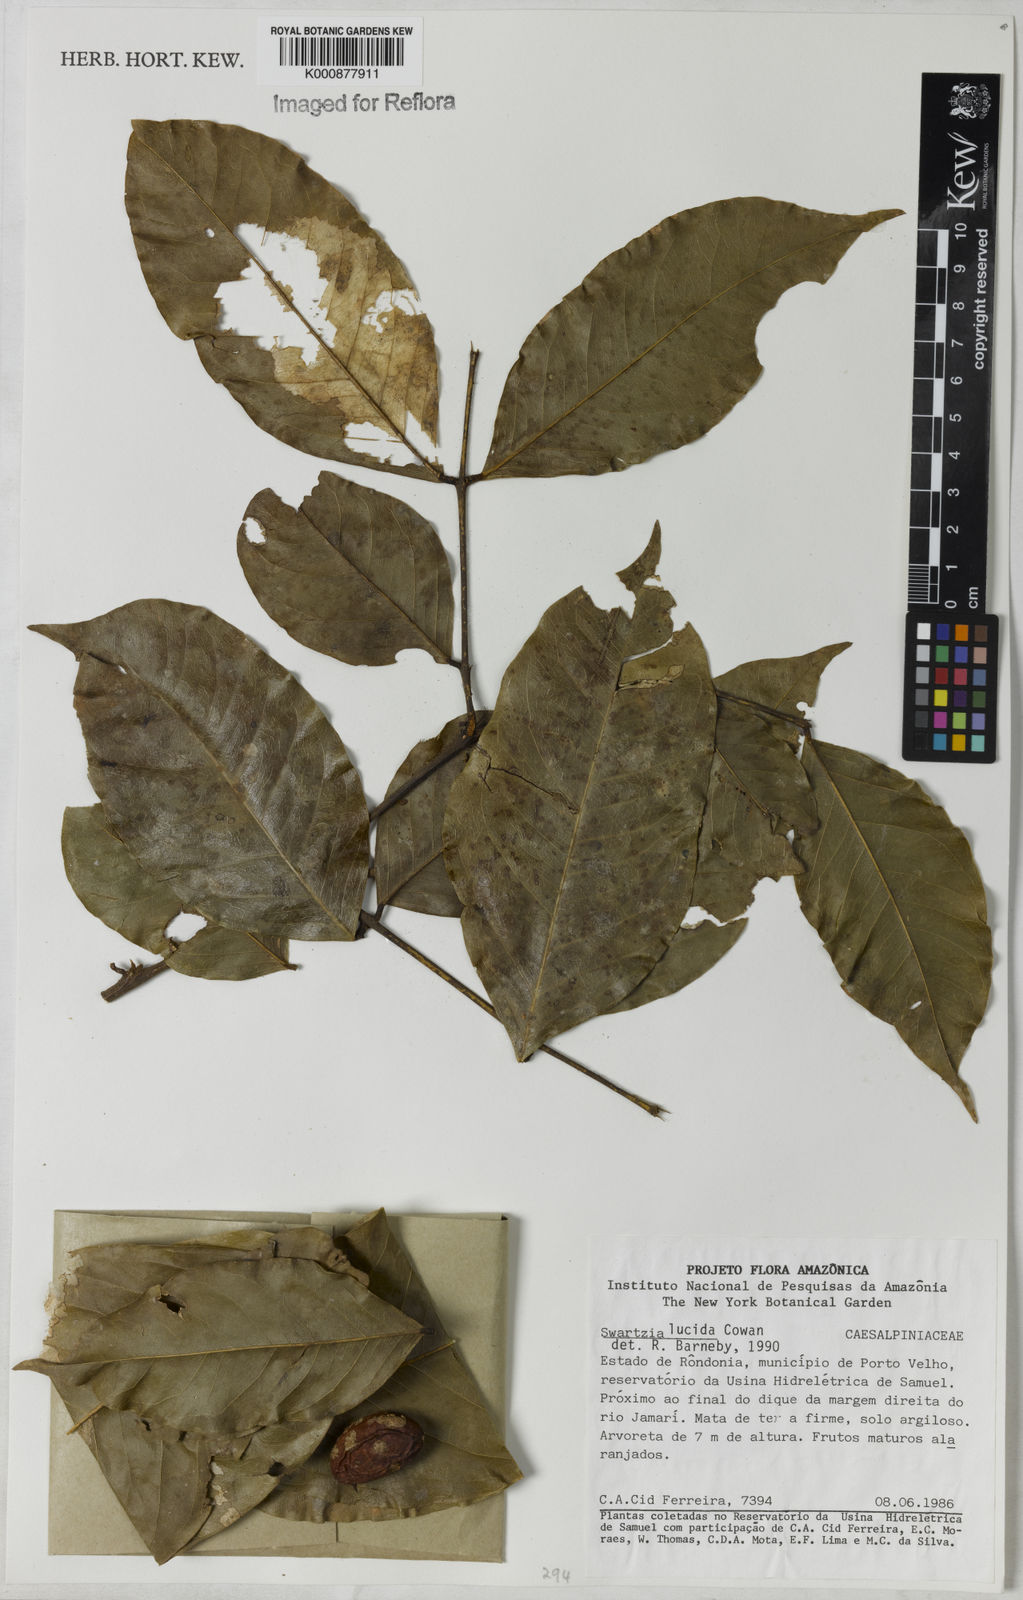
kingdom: Plantae
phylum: Tracheophyta
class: Magnoliopsida
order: Fabales
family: Fabaceae
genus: Swartzia
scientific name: Swartzia lucida
